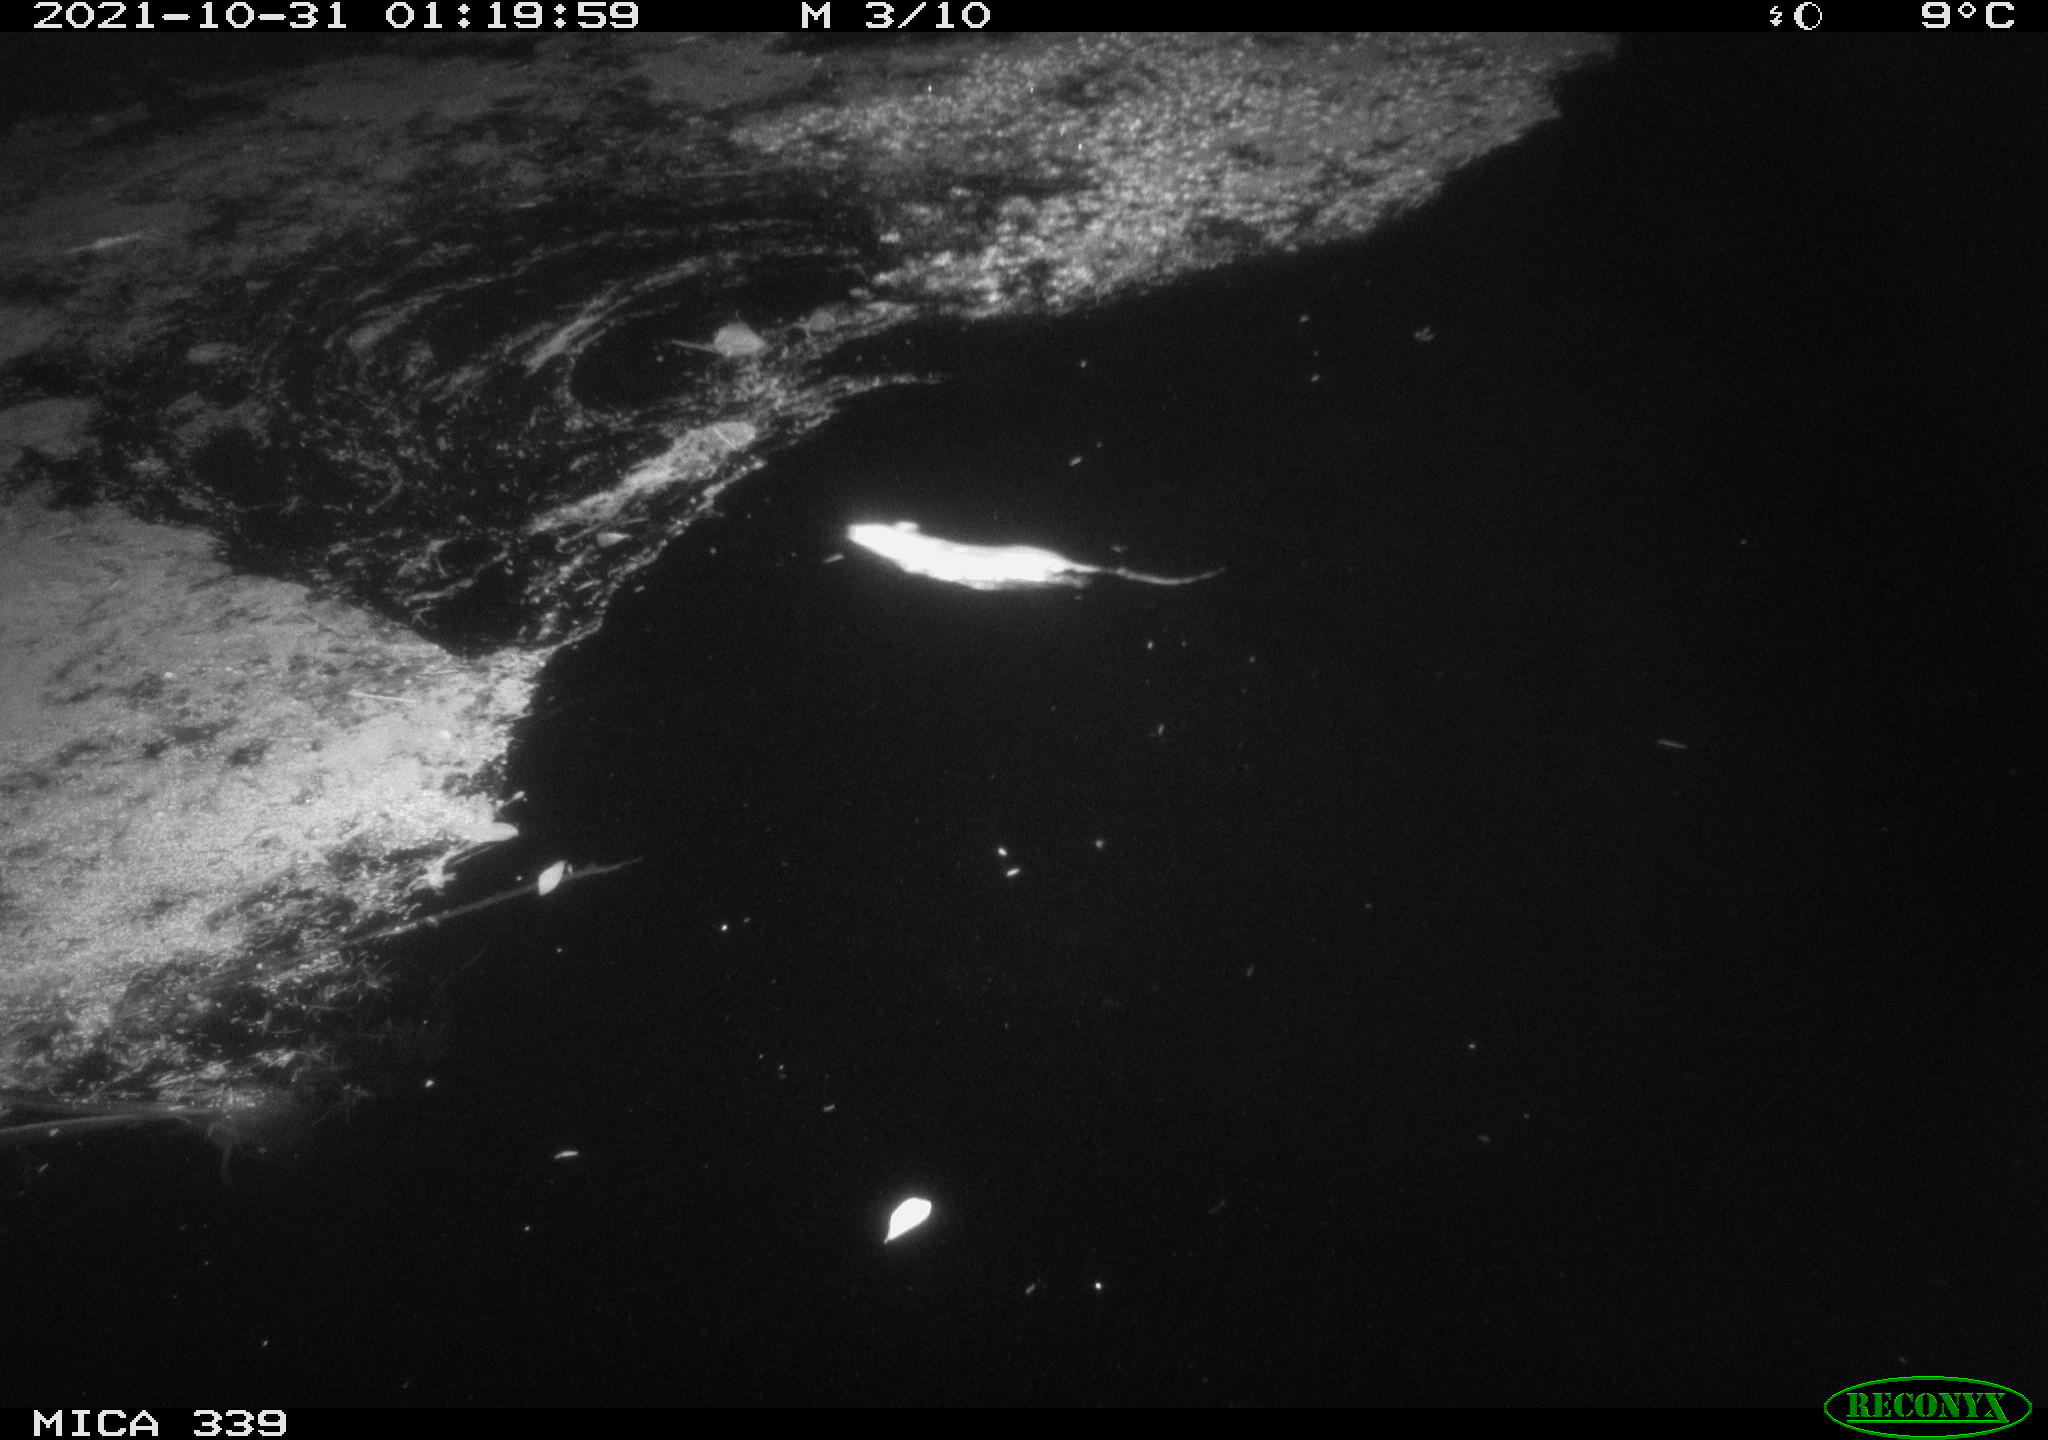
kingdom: Animalia
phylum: Chordata
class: Mammalia
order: Rodentia
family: Muridae
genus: Rattus
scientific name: Rattus norvegicus
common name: Brown rat
